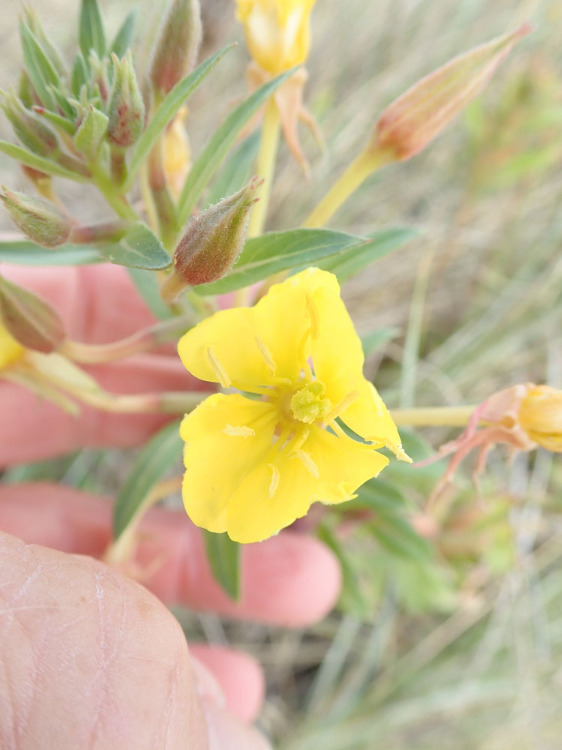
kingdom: Plantae
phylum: Tracheophyta
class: Magnoliopsida
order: Myrtales
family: Onagraceae
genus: Oenothera
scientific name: Oenothera ammophila
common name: Klit-natlys
